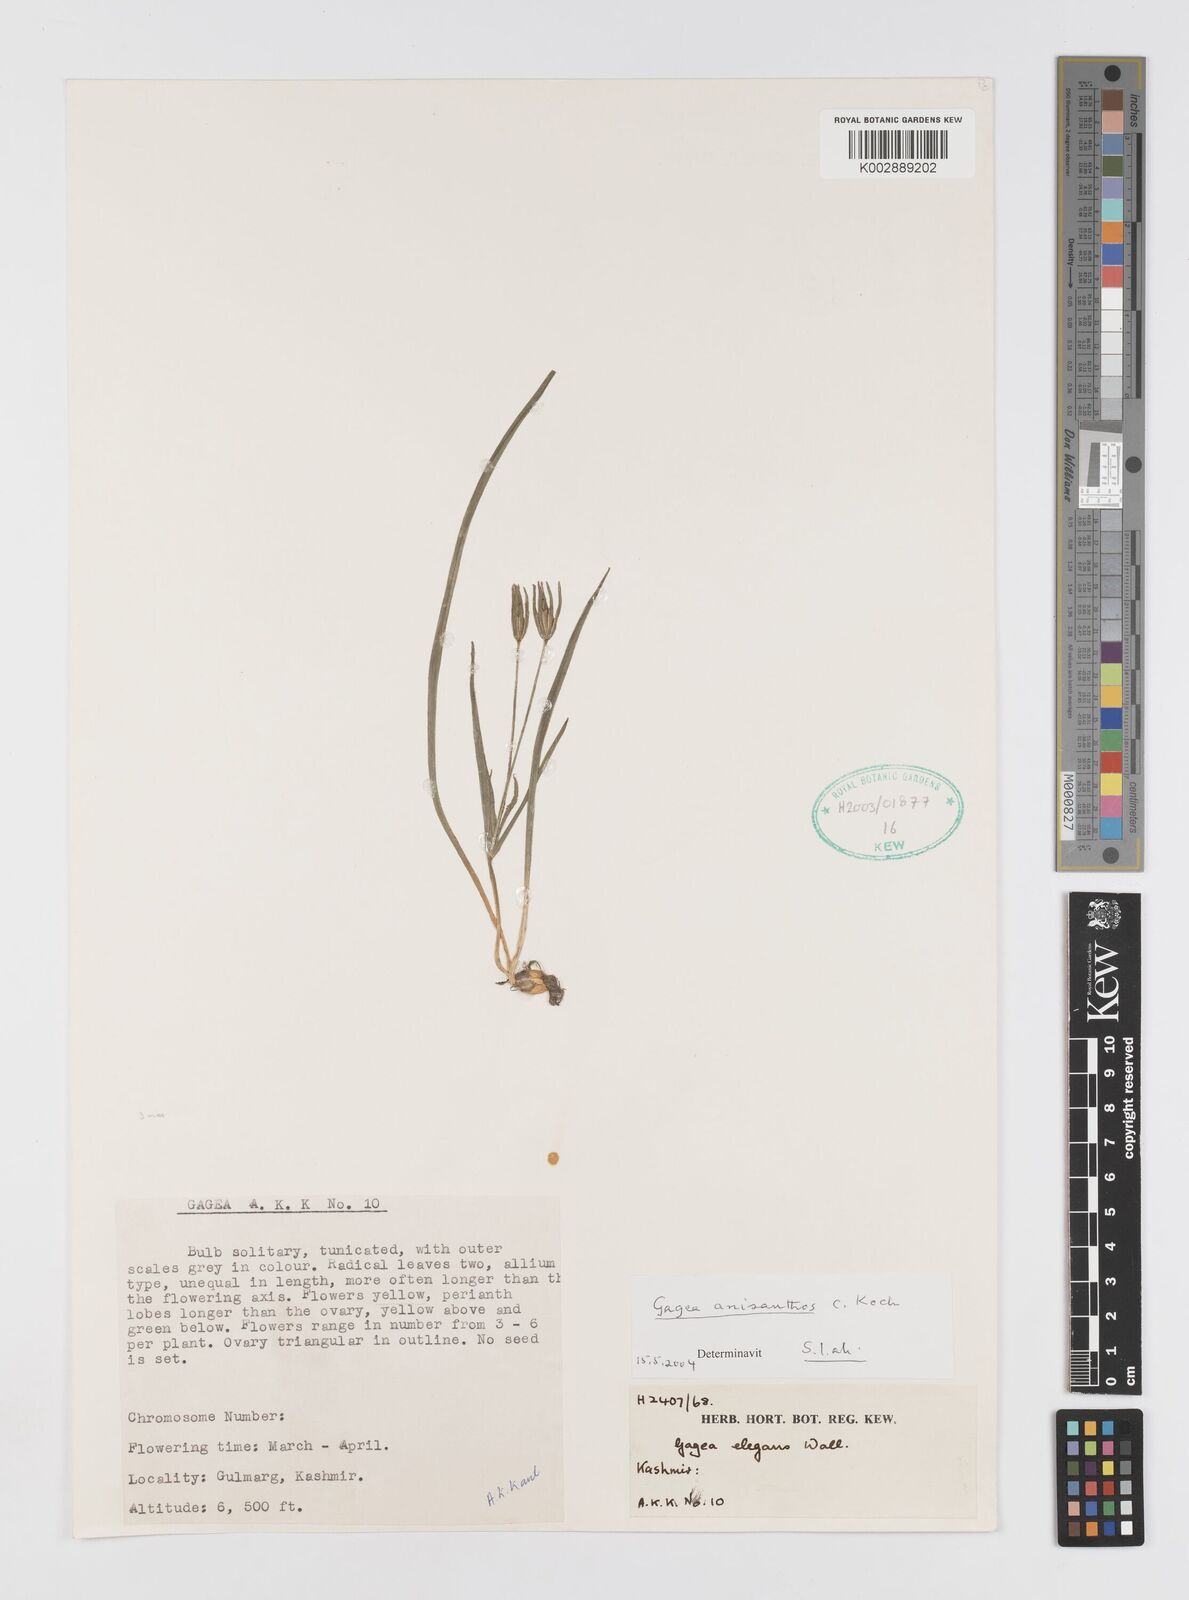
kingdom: Plantae
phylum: Tracheophyta
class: Liliopsida
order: Liliales
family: Liliaceae
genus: Gagea
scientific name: Gagea fragifera
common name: Lily
